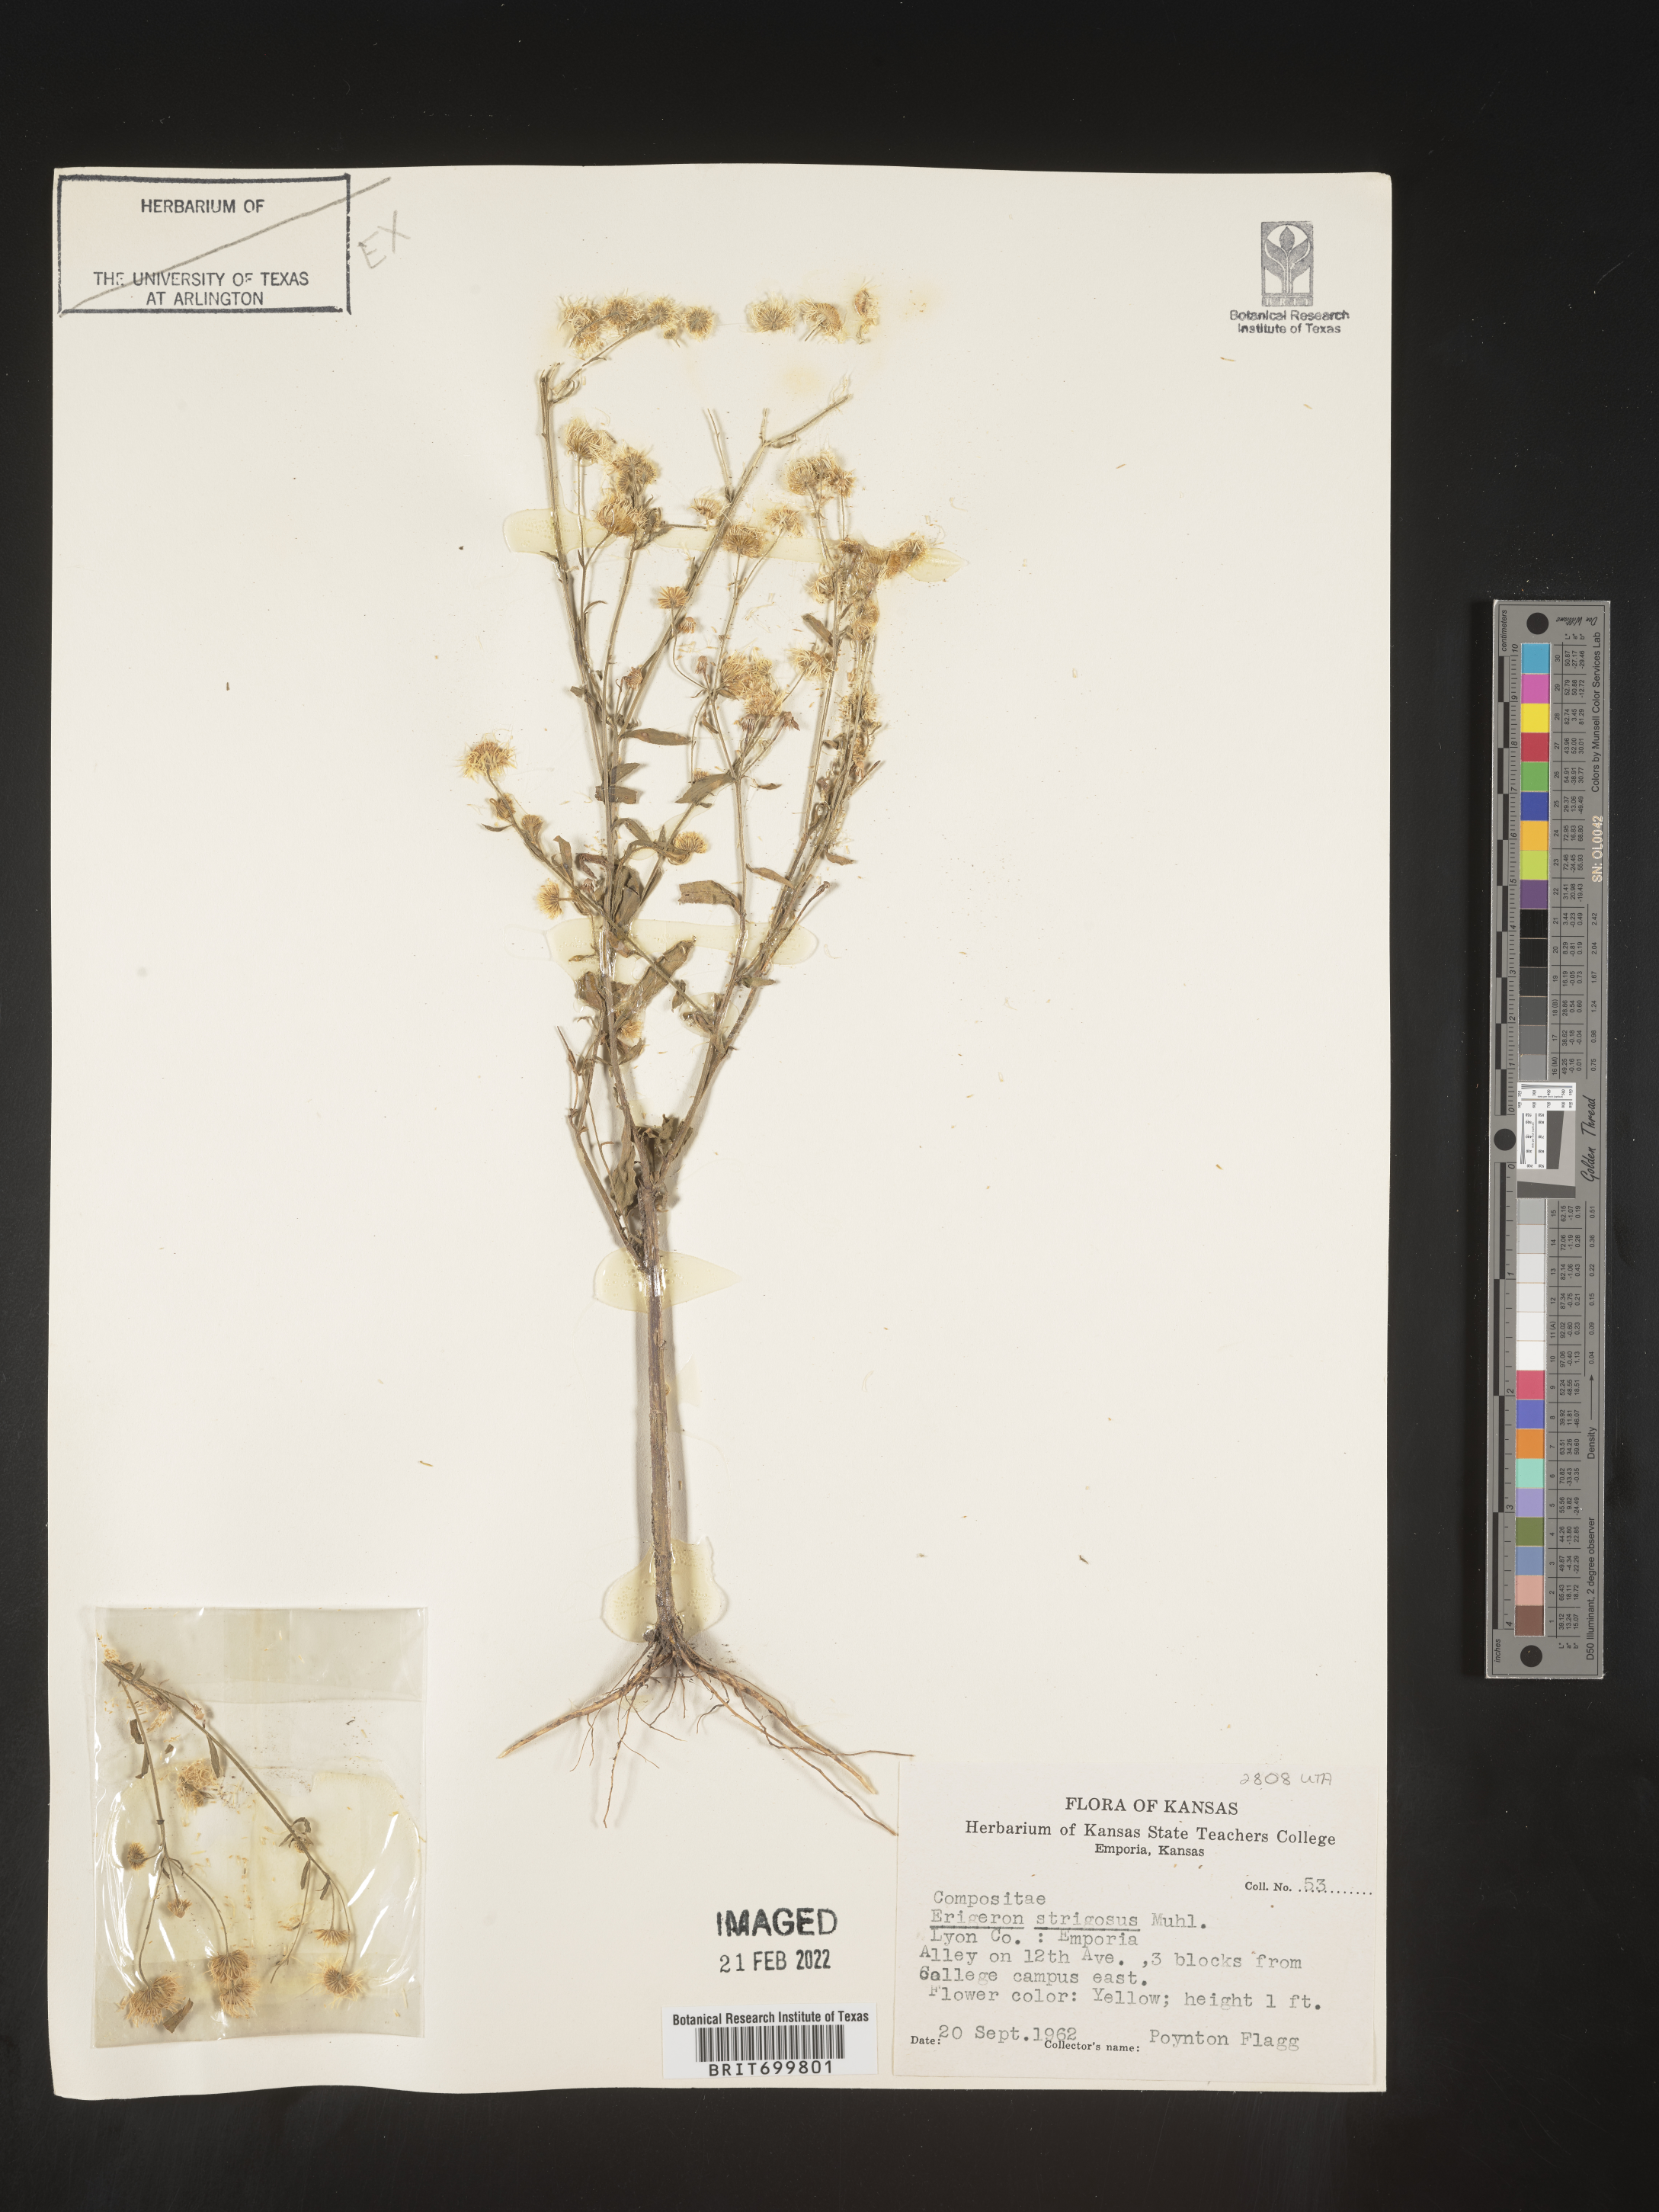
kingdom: Plantae
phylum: Tracheophyta
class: Magnoliopsida
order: Asterales
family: Asteraceae
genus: Erigeron
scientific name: Erigeron strigosus
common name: Common eastern fleabane
